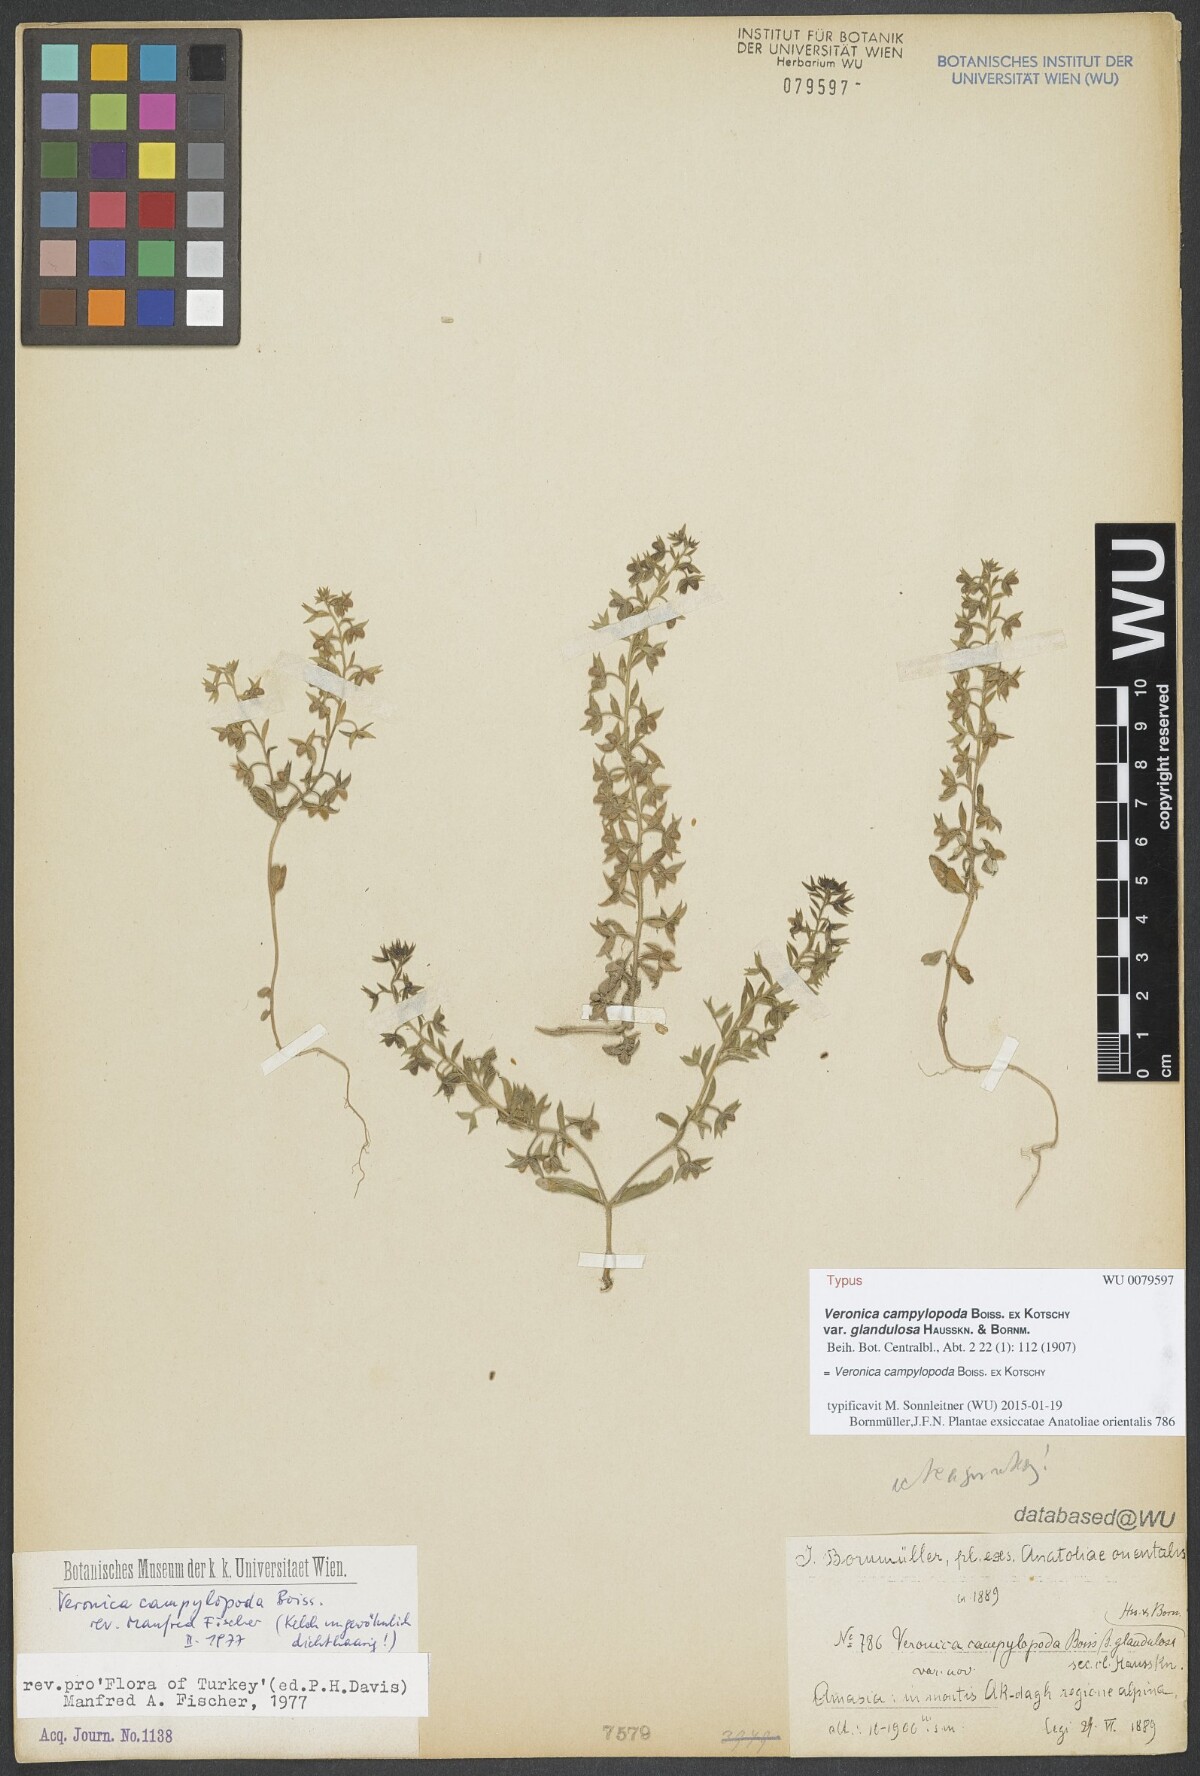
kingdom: Plantae
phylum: Tracheophyta
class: Magnoliopsida
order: Lamiales
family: Plantaginaceae
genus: Veronica
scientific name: Veronica campylopoda
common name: Bent-foot speedwell
